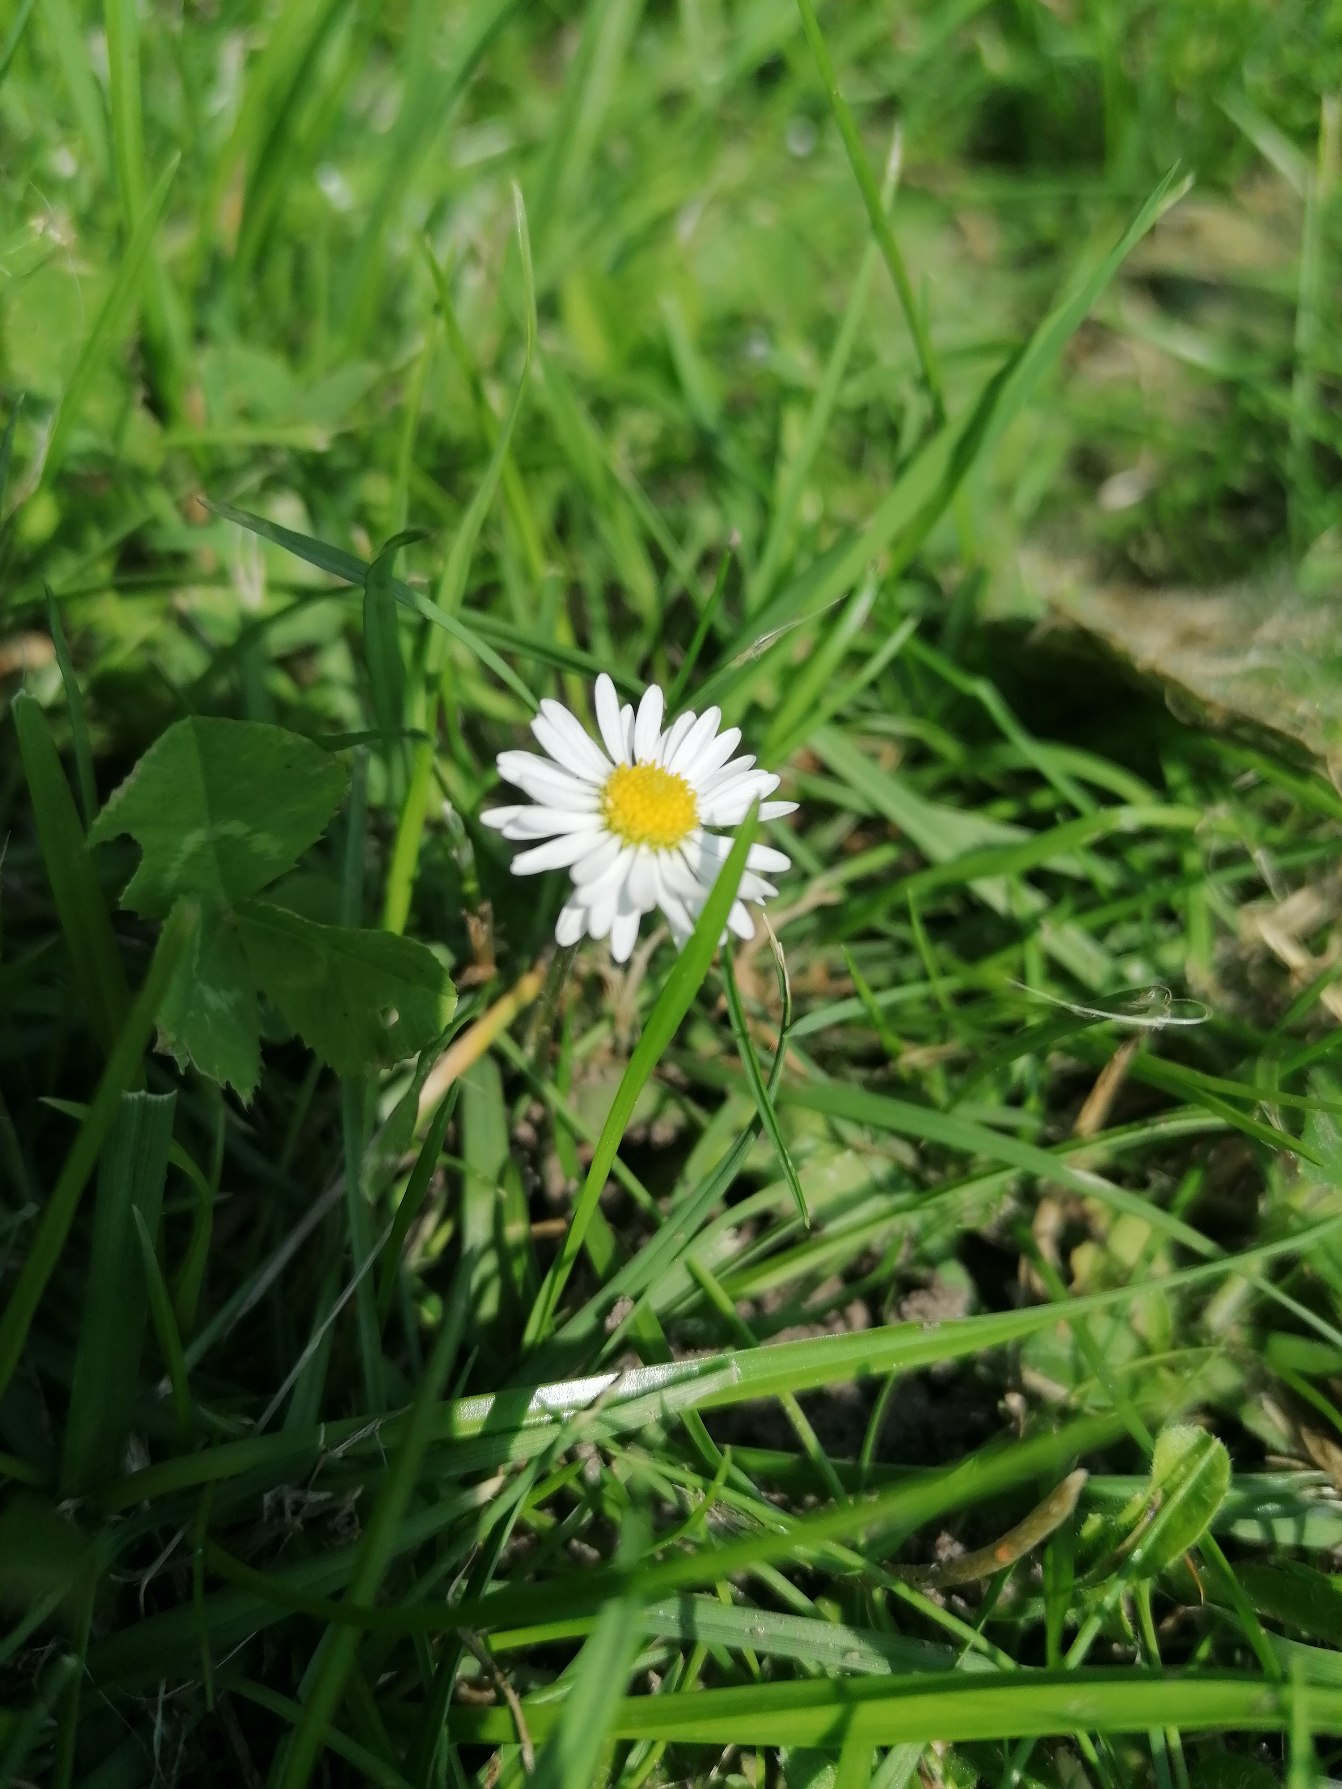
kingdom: Plantae
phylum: Tracheophyta
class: Magnoliopsida
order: Asterales
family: Asteraceae
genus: Bellis
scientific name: Bellis perennis
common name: Tusindfryd
